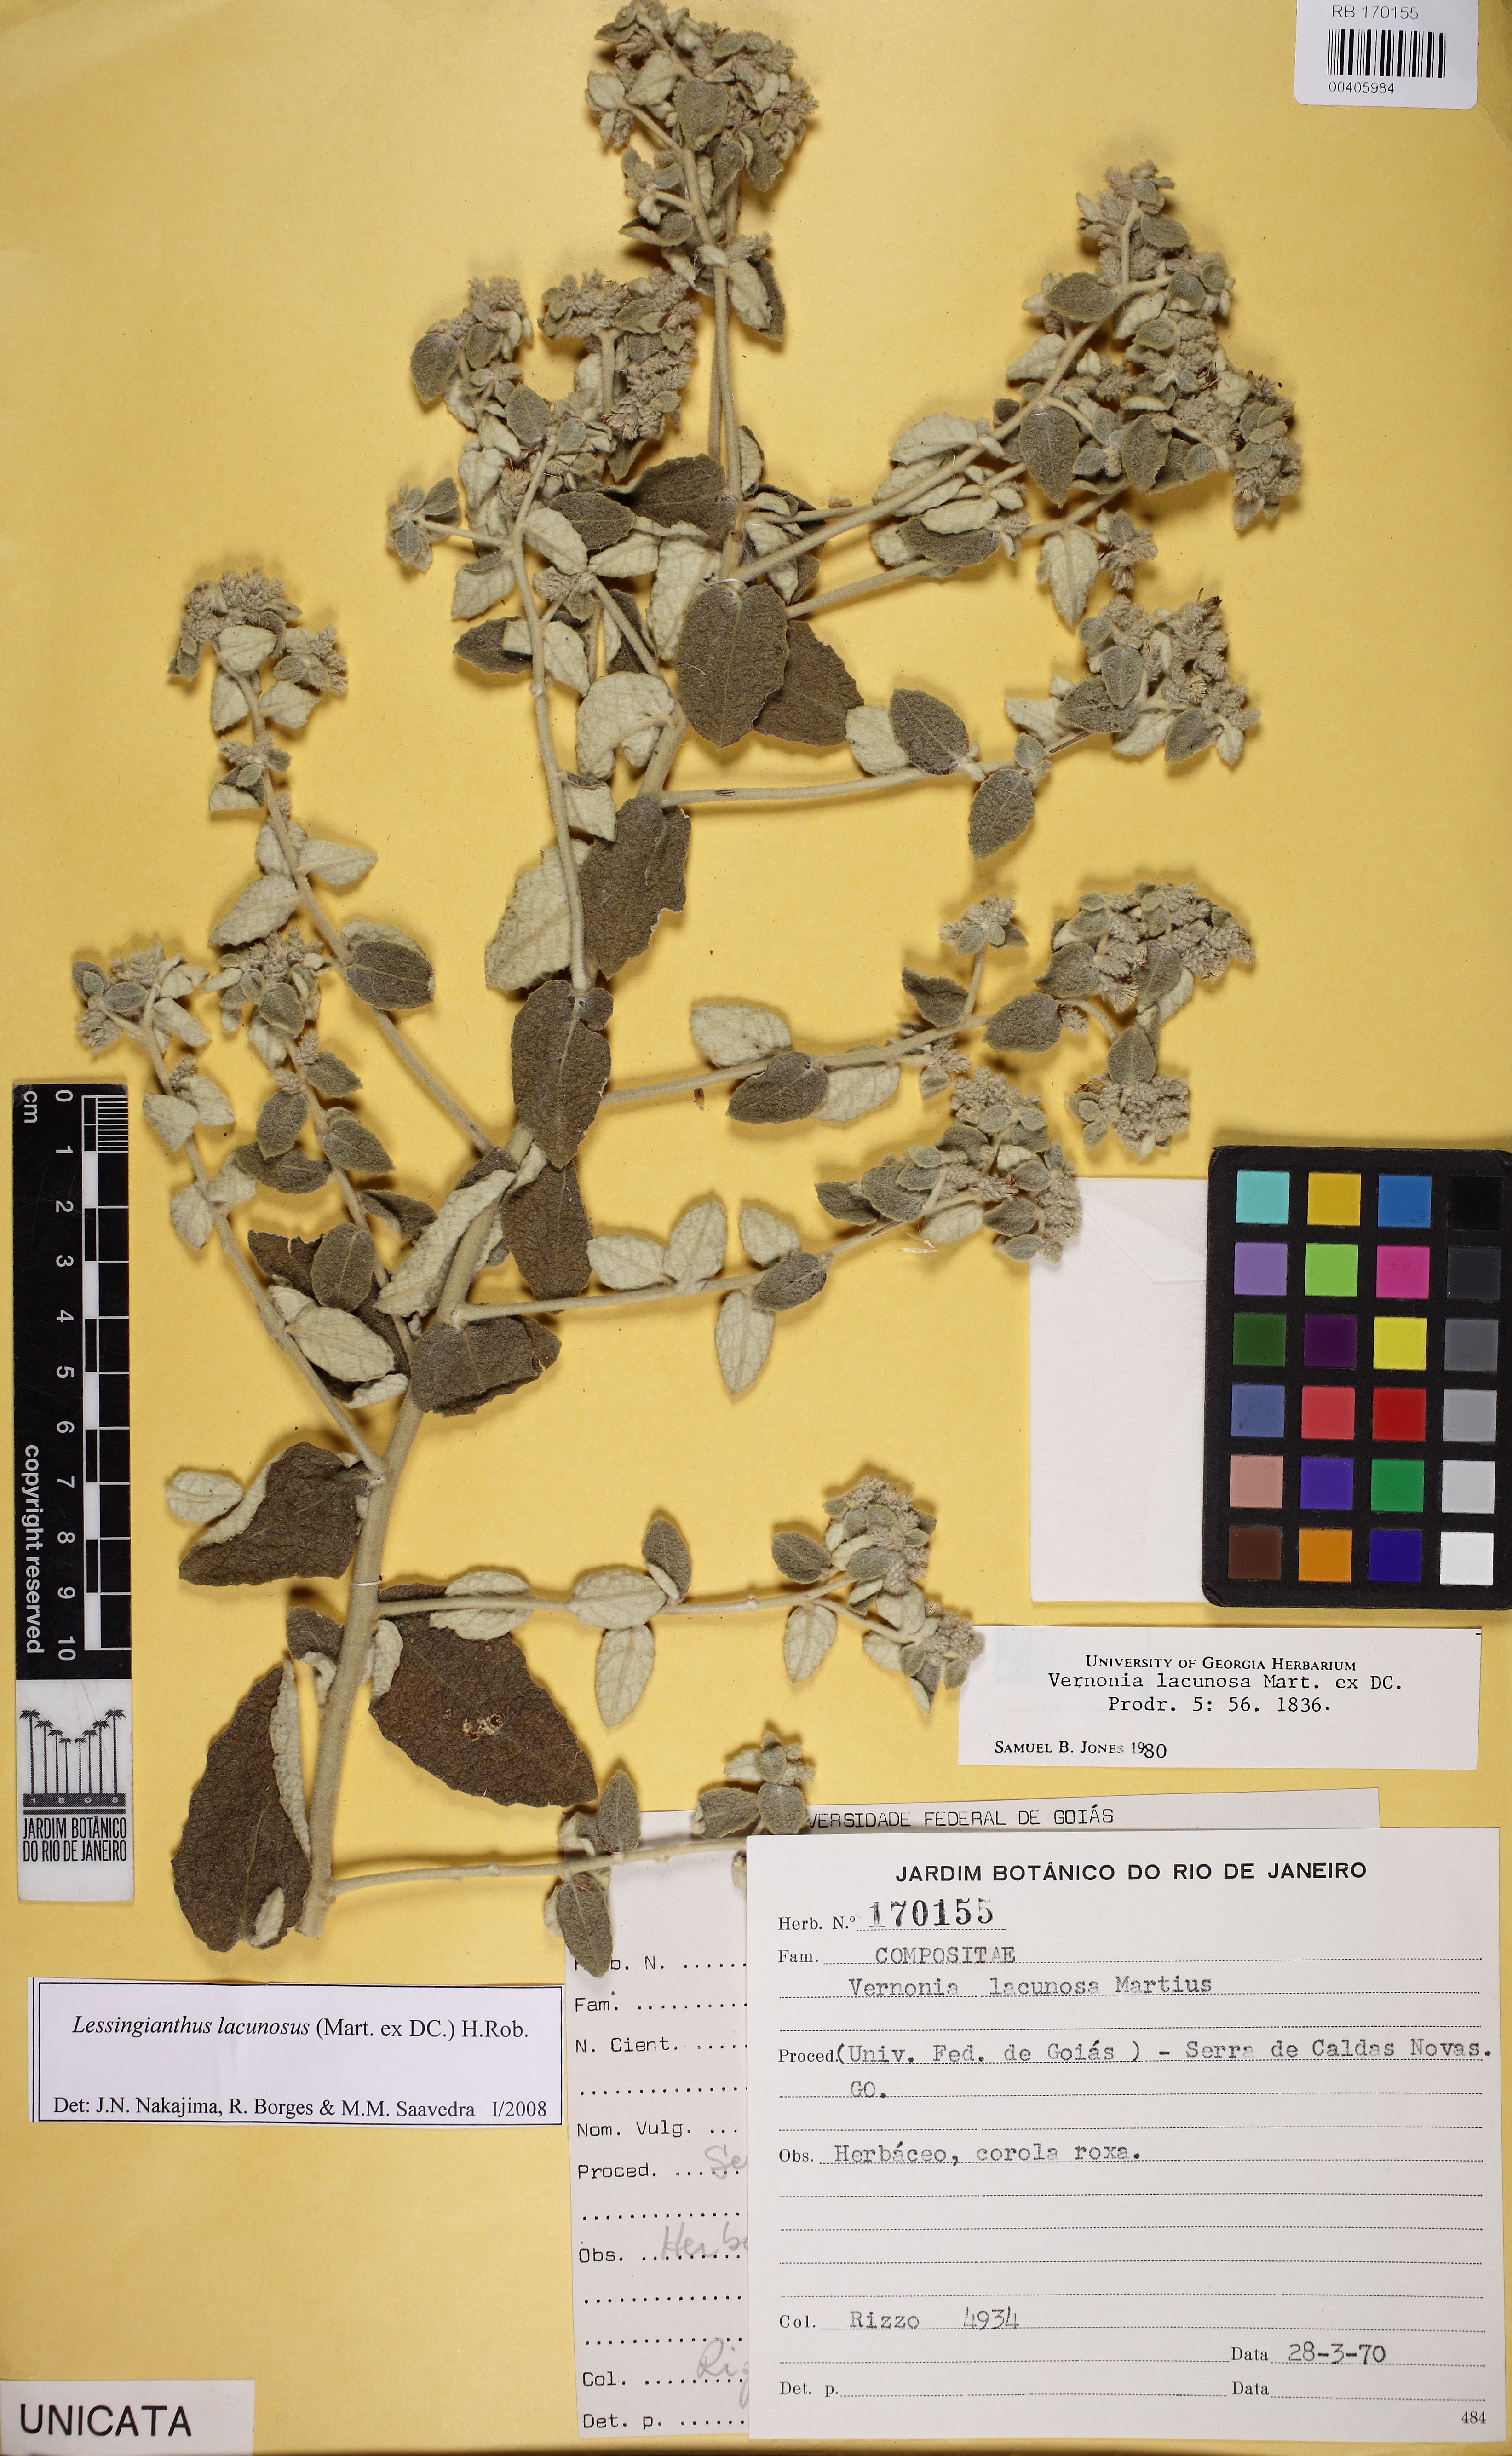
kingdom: Plantae
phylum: Tracheophyta
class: Magnoliopsida
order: Asterales
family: Asteraceae
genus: Lessingianthus
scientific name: Lessingianthus lacunosus
